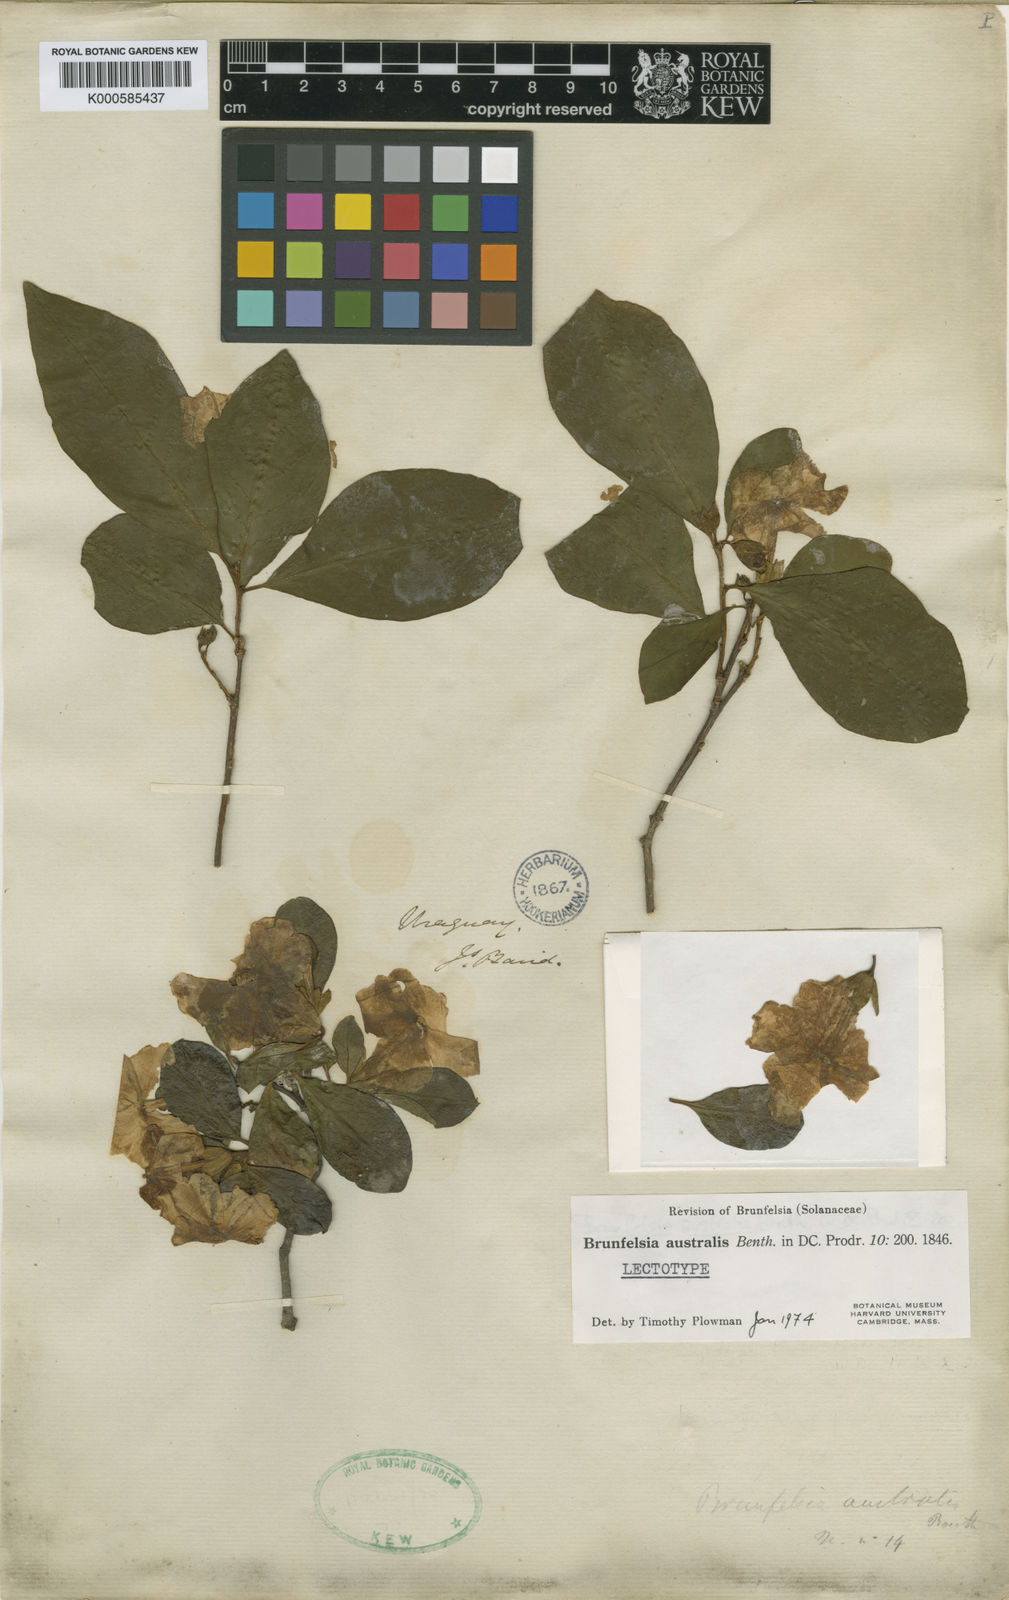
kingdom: Plantae
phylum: Tracheophyta
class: Magnoliopsida
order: Solanales
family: Solanaceae
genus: Brunfelsia
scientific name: Brunfelsia australis
